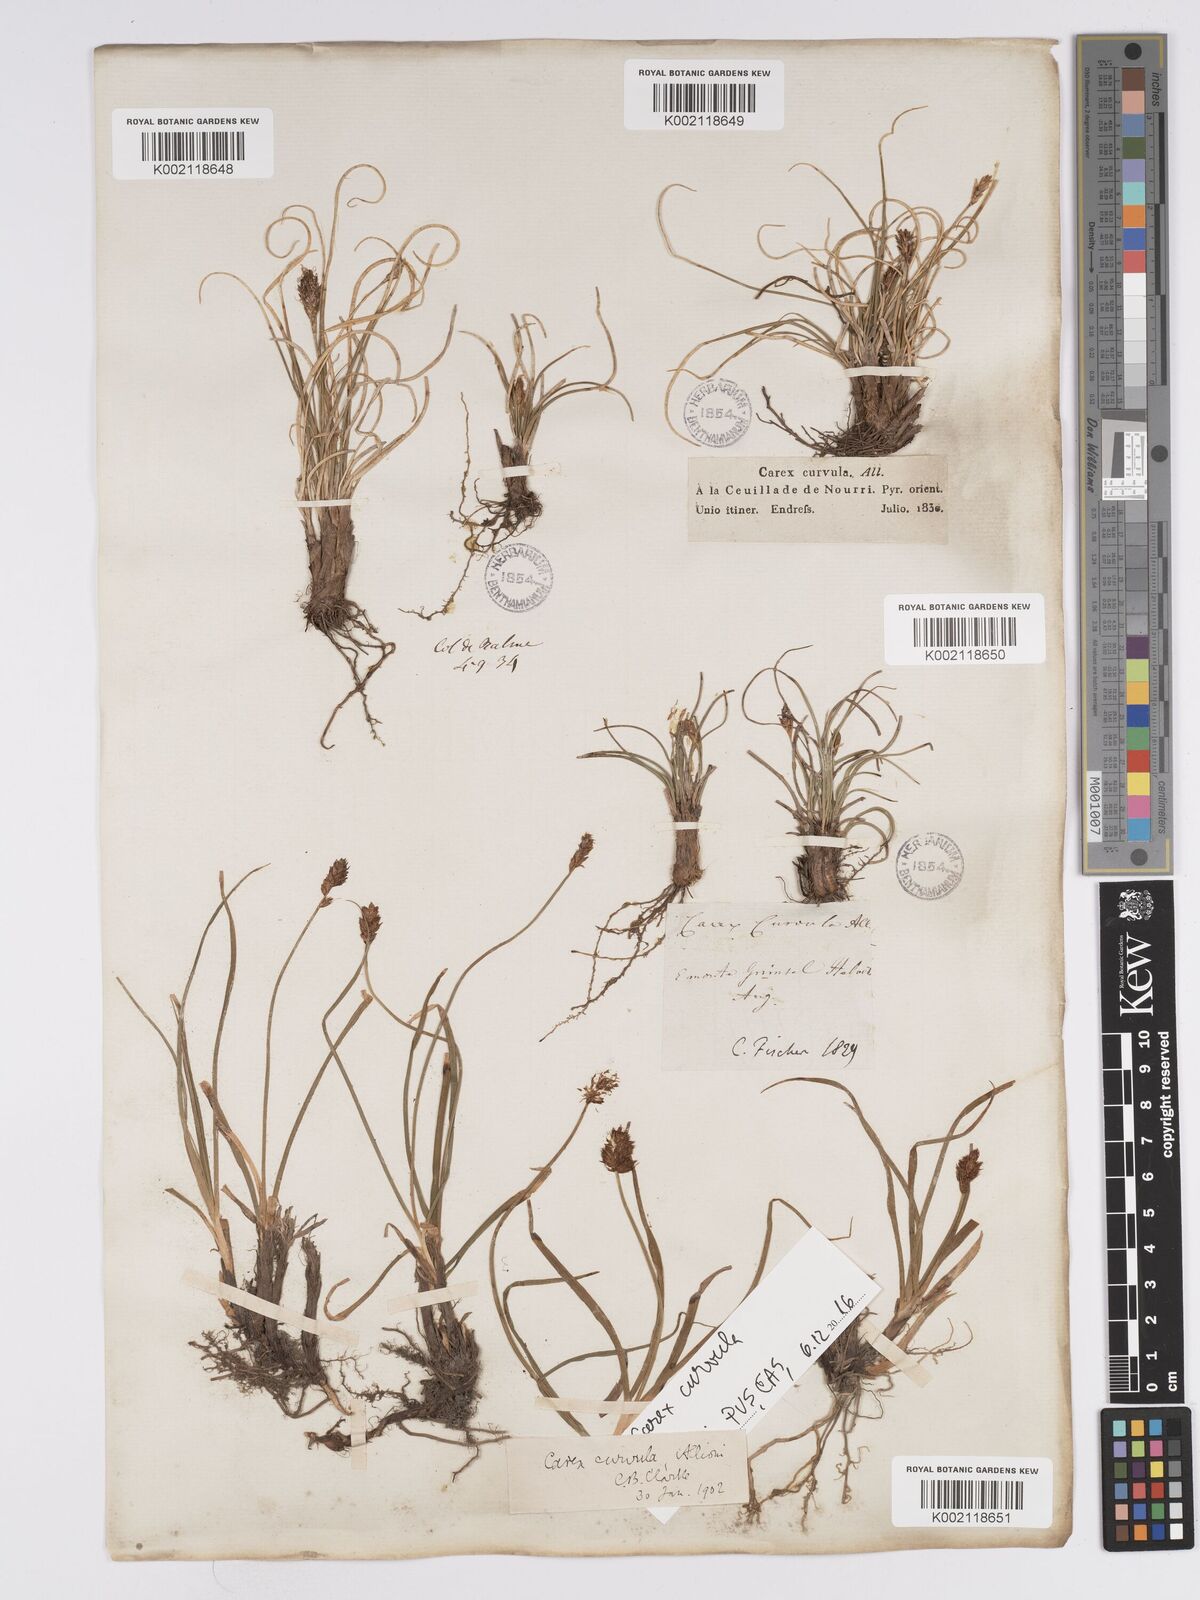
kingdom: Plantae
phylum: Tracheophyta
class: Liliopsida
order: Poales
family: Cyperaceae
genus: Carex
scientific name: Carex curvula
